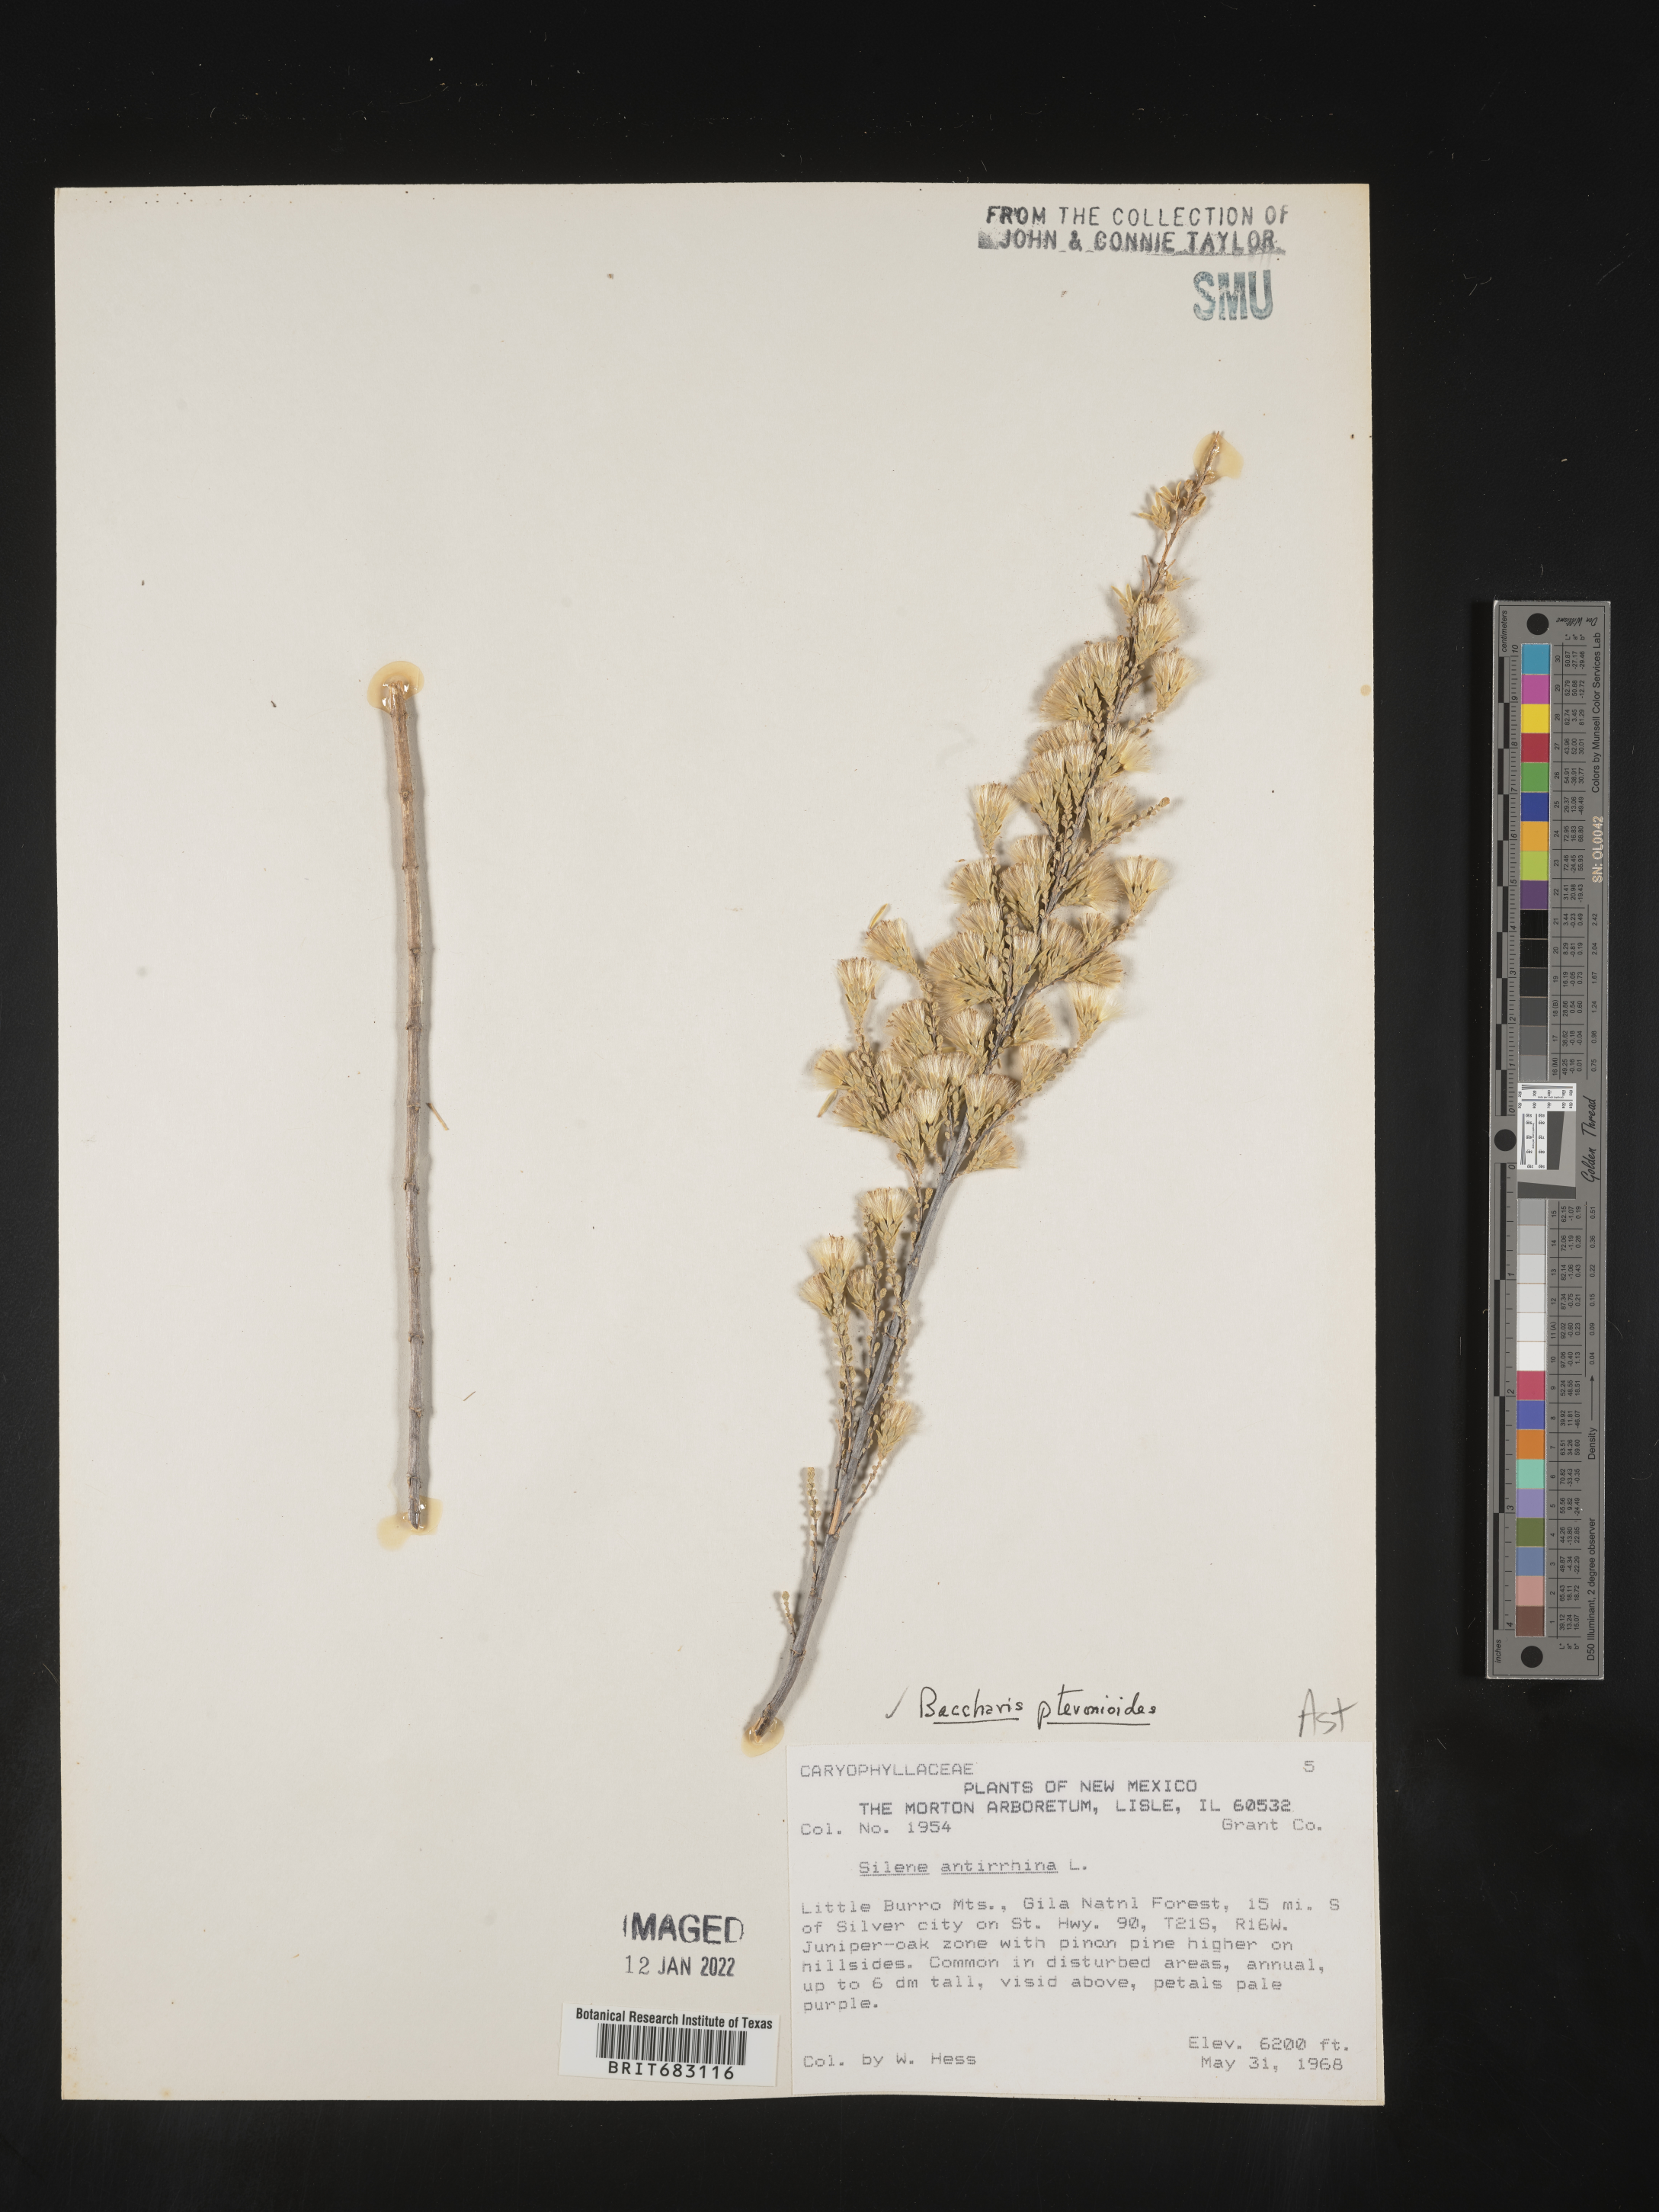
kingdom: Plantae
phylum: Tracheophyta
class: Magnoliopsida
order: Asterales
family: Asteraceae
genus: Baccharis
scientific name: Baccharis pteronioides
